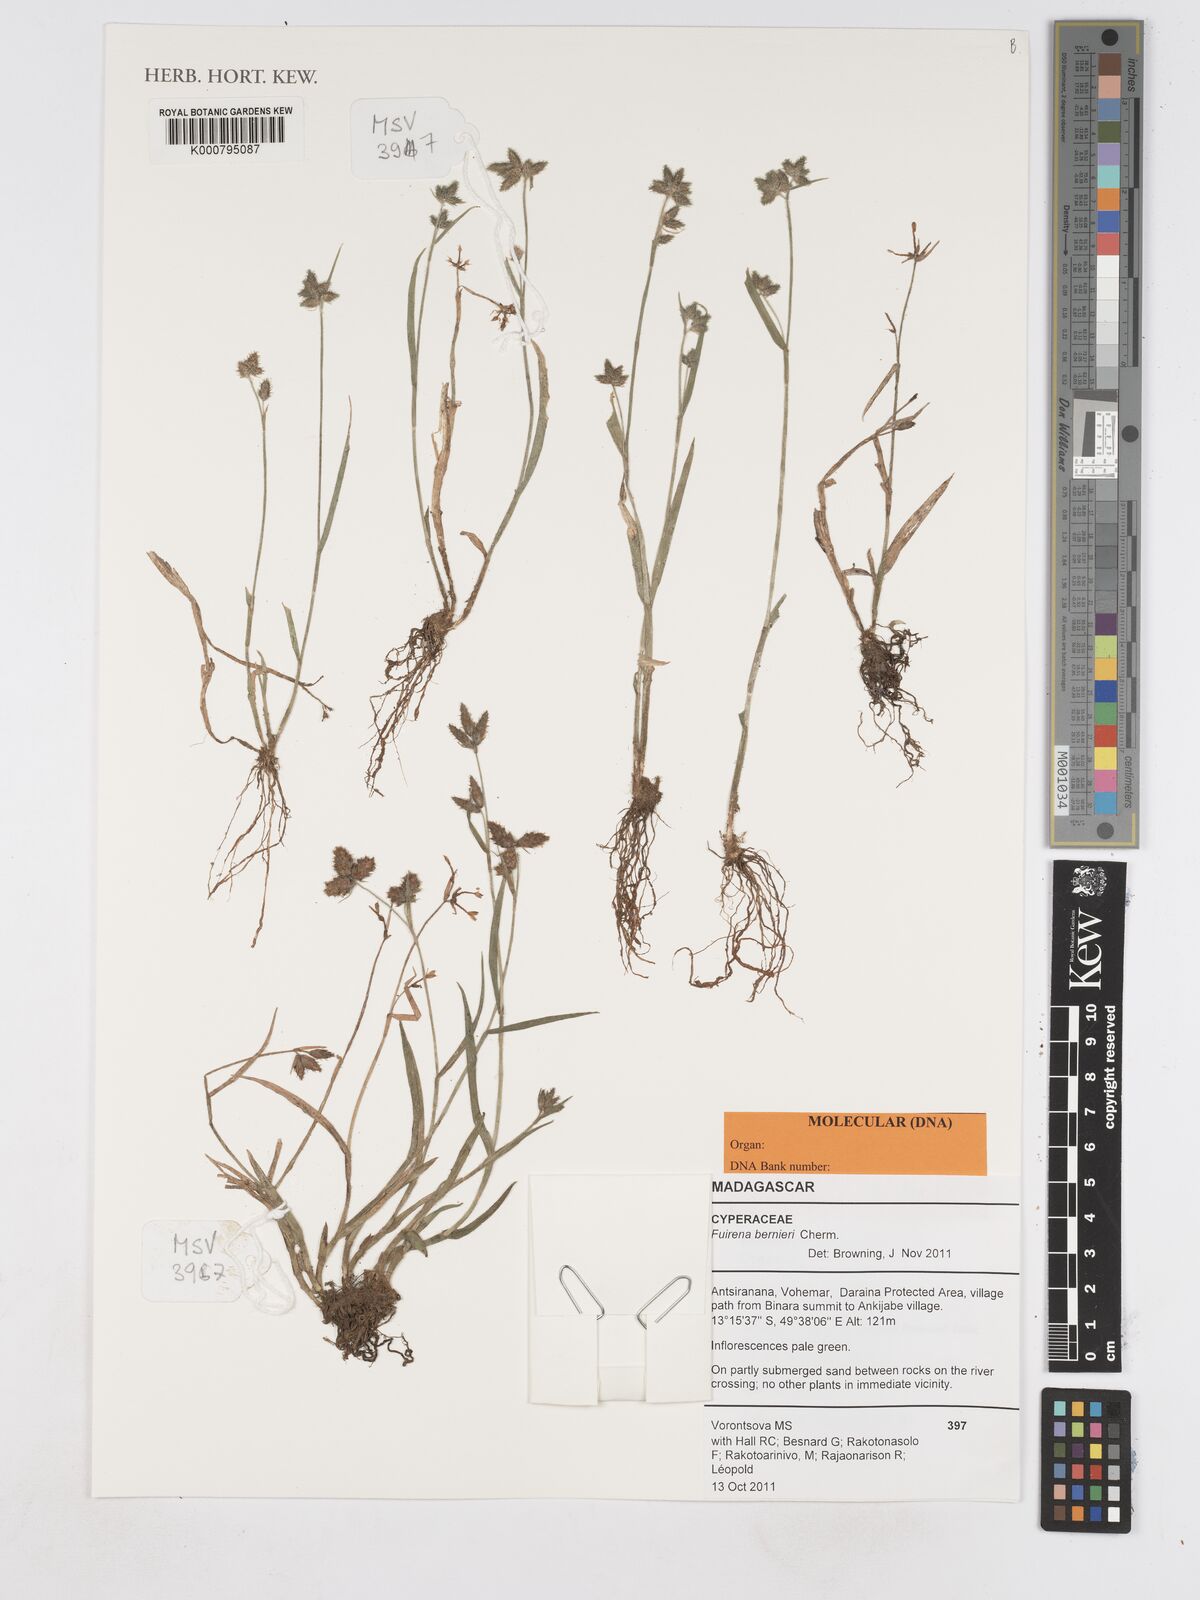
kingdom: Plantae
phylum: Tracheophyta
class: Liliopsida
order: Poales
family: Cyperaceae
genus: Fuirena
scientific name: Fuirena bernieri
